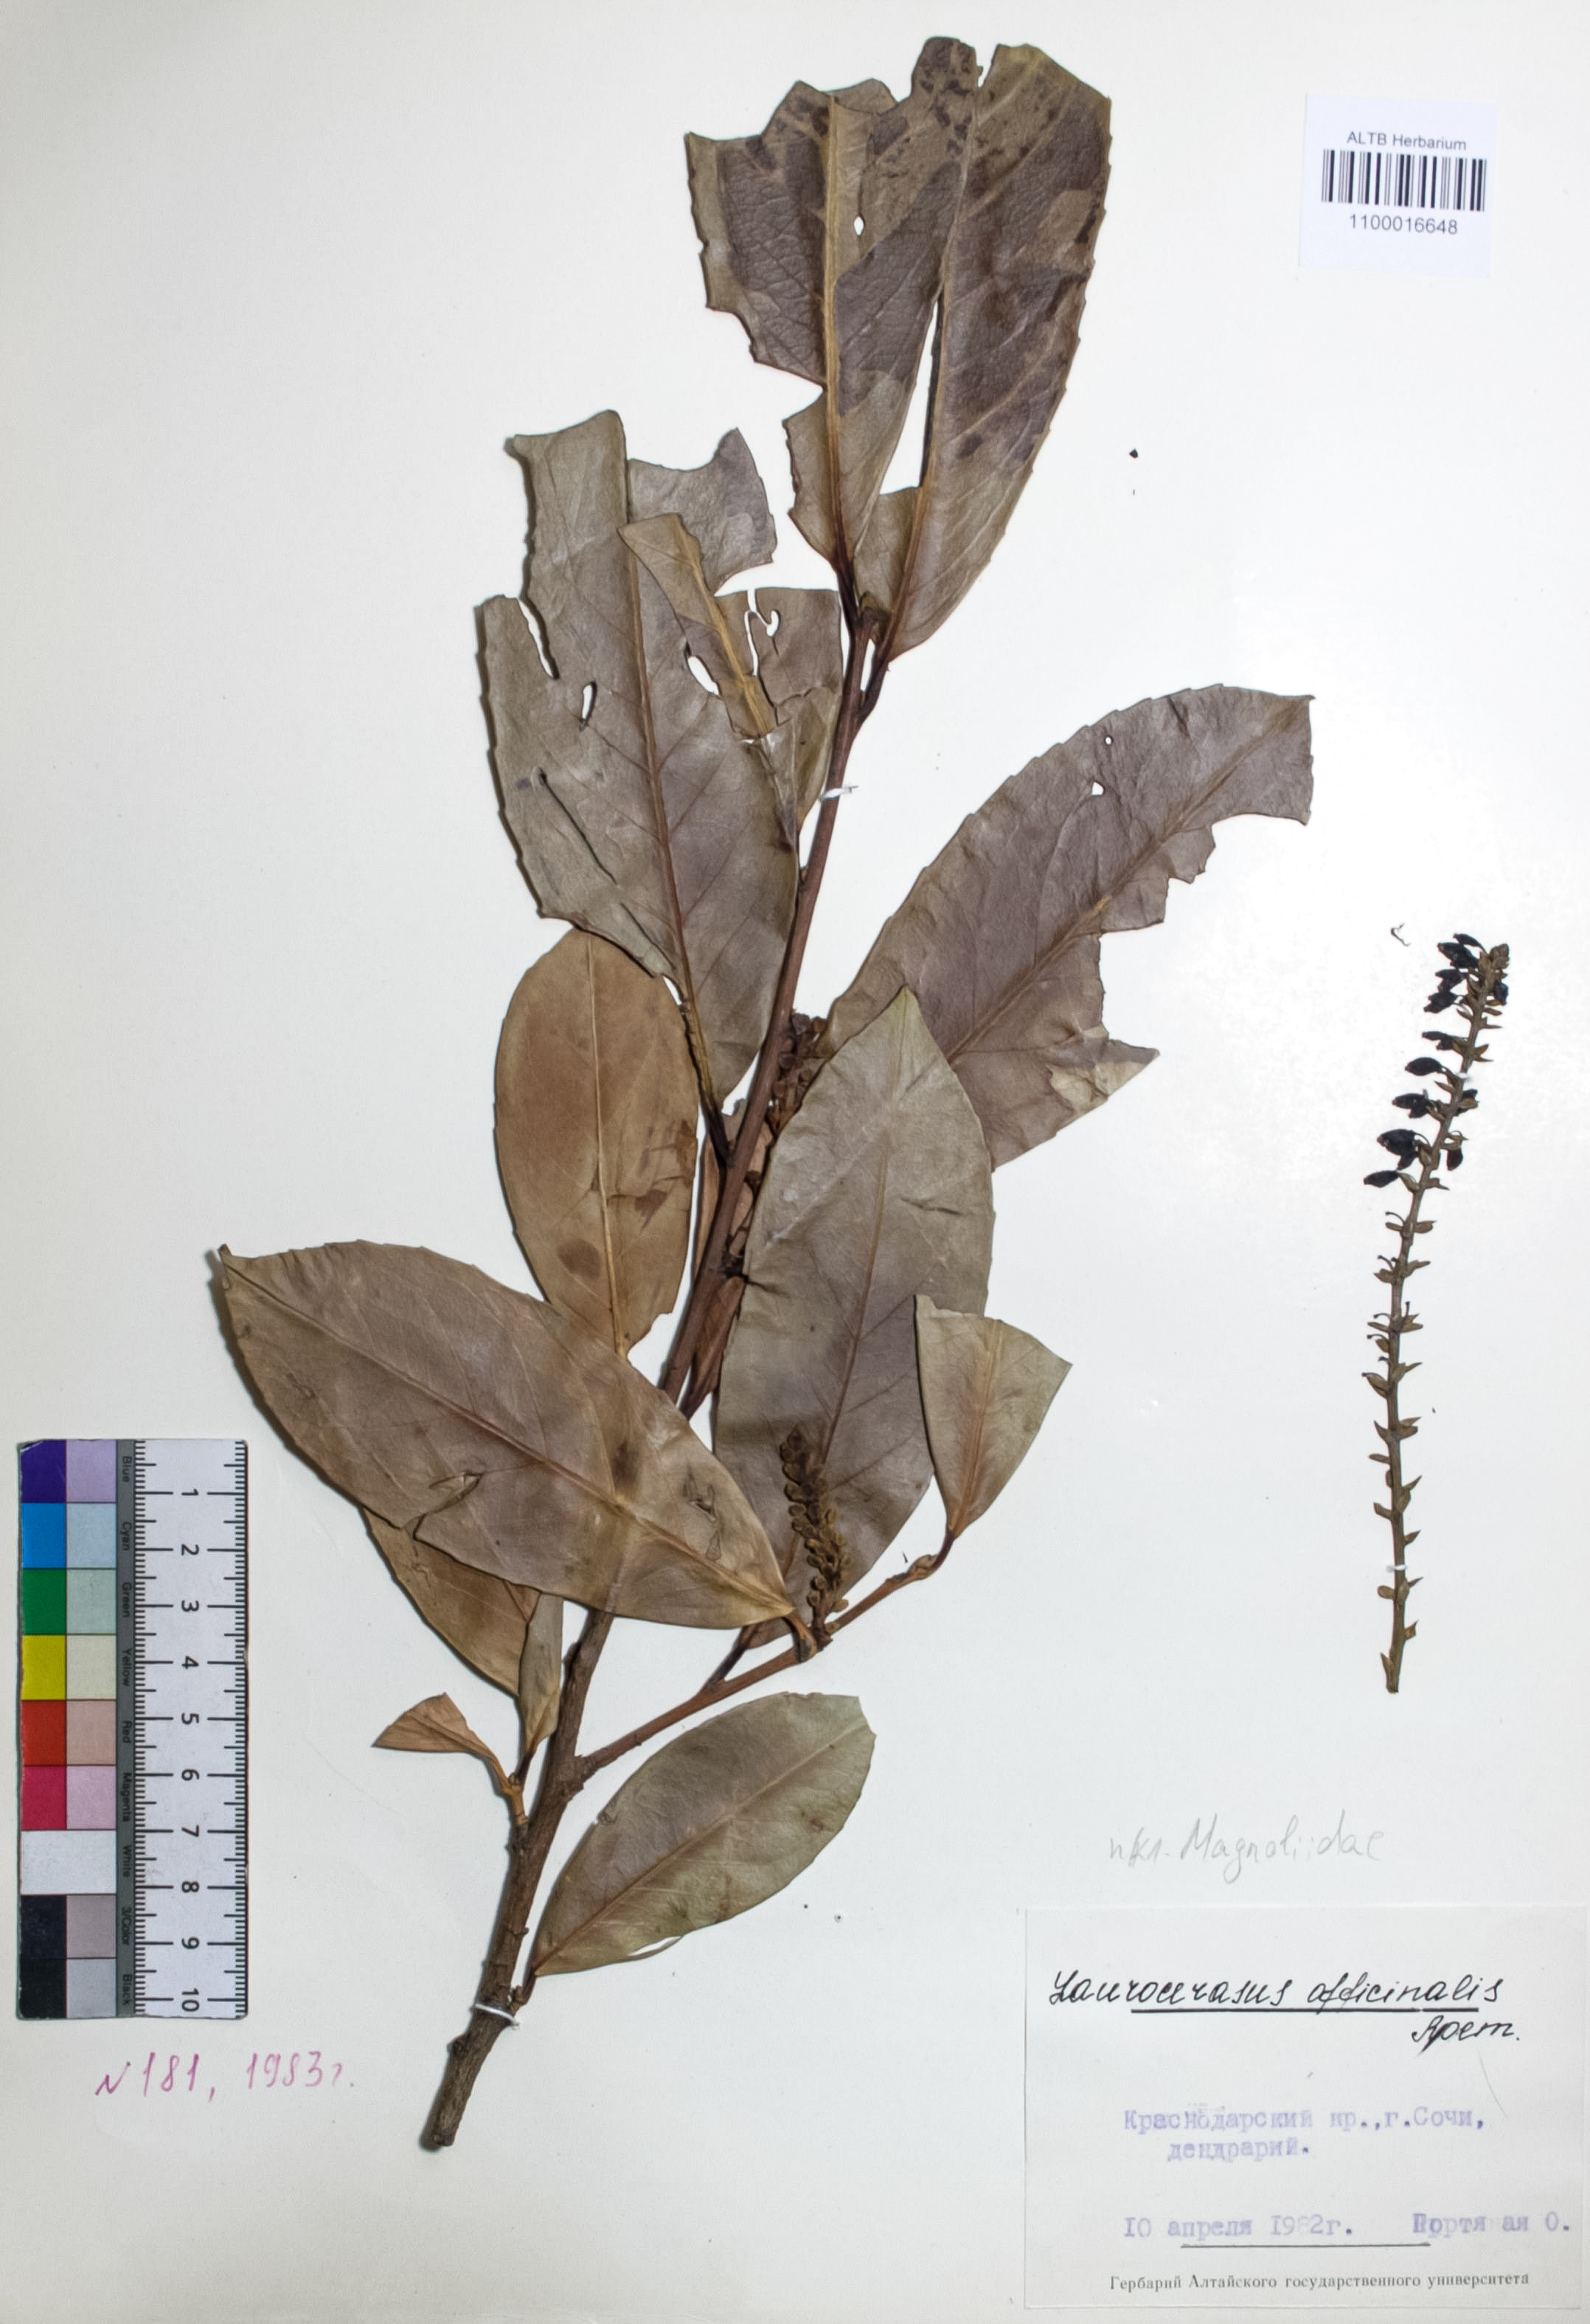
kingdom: Plantae
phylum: Tracheophyta
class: Magnoliopsida
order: Rosales
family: Rosaceae
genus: Prunus
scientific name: Prunus laurocerasus
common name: Cherry laurel
